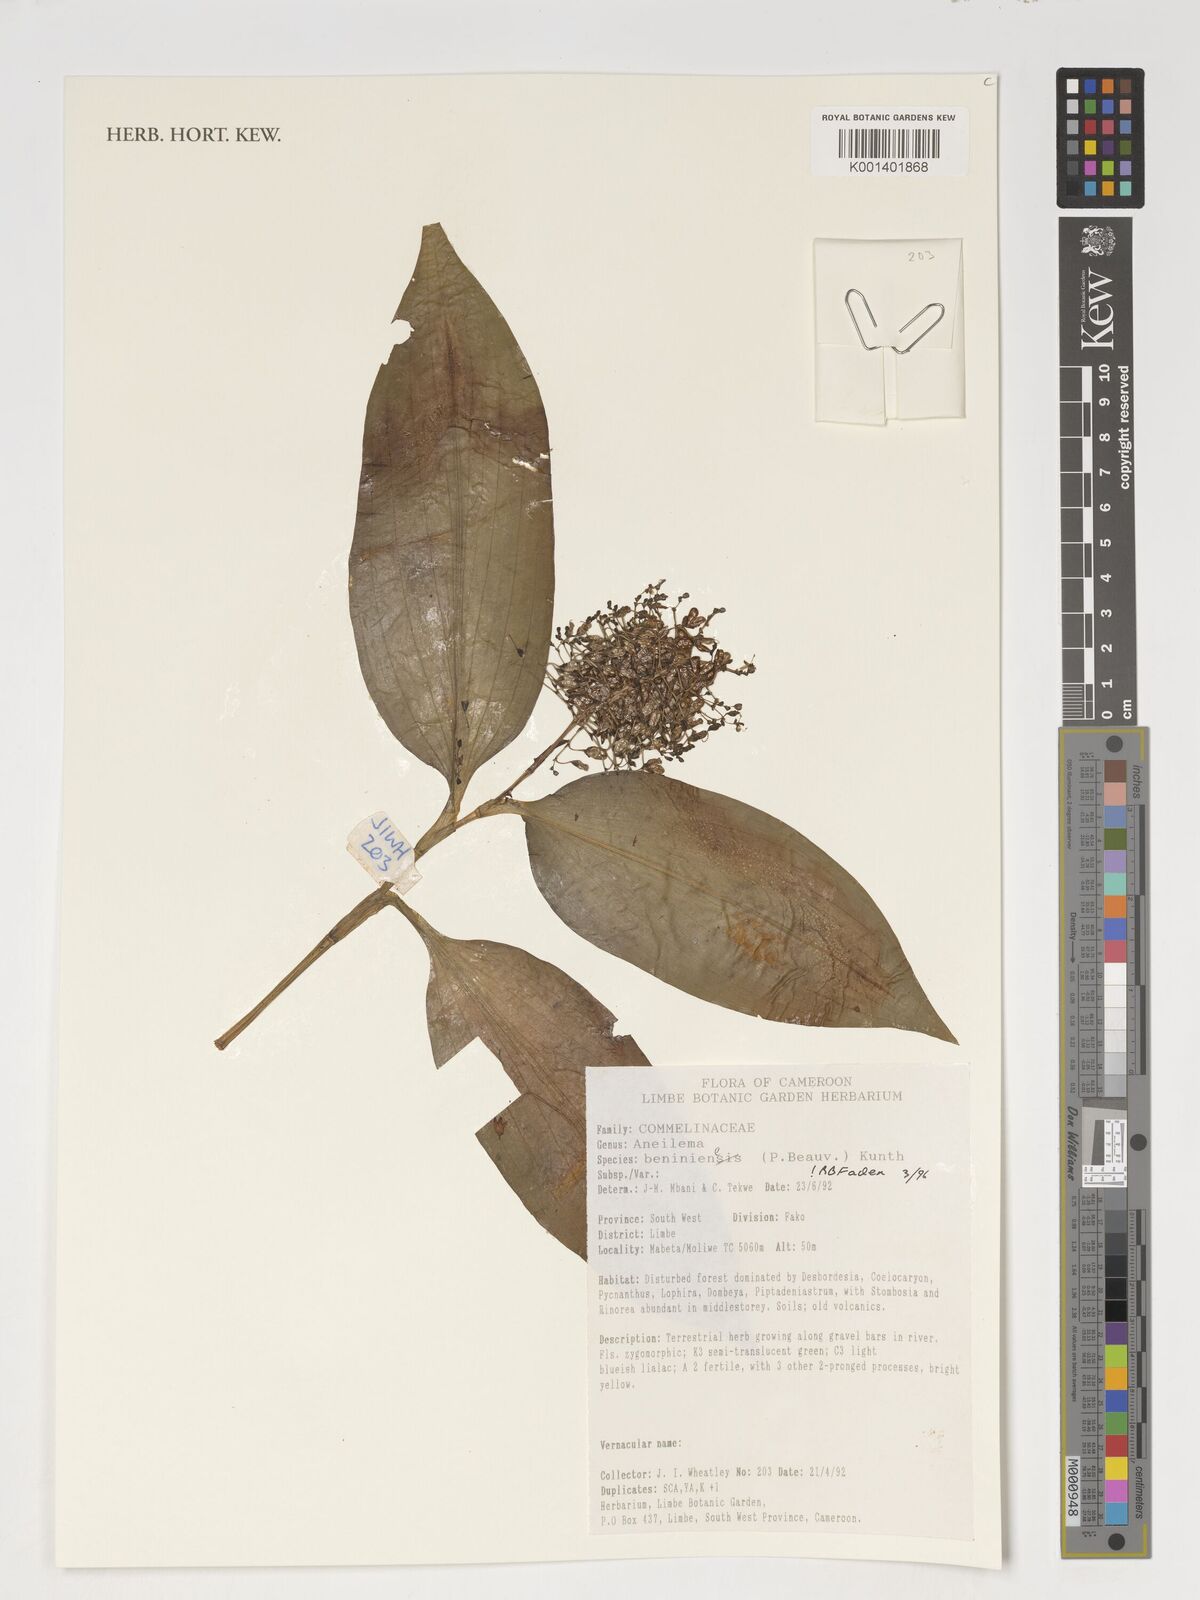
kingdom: Plantae
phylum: Tracheophyta
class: Liliopsida
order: Commelinales
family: Commelinaceae
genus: Aneilema
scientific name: Aneilema beniniense
